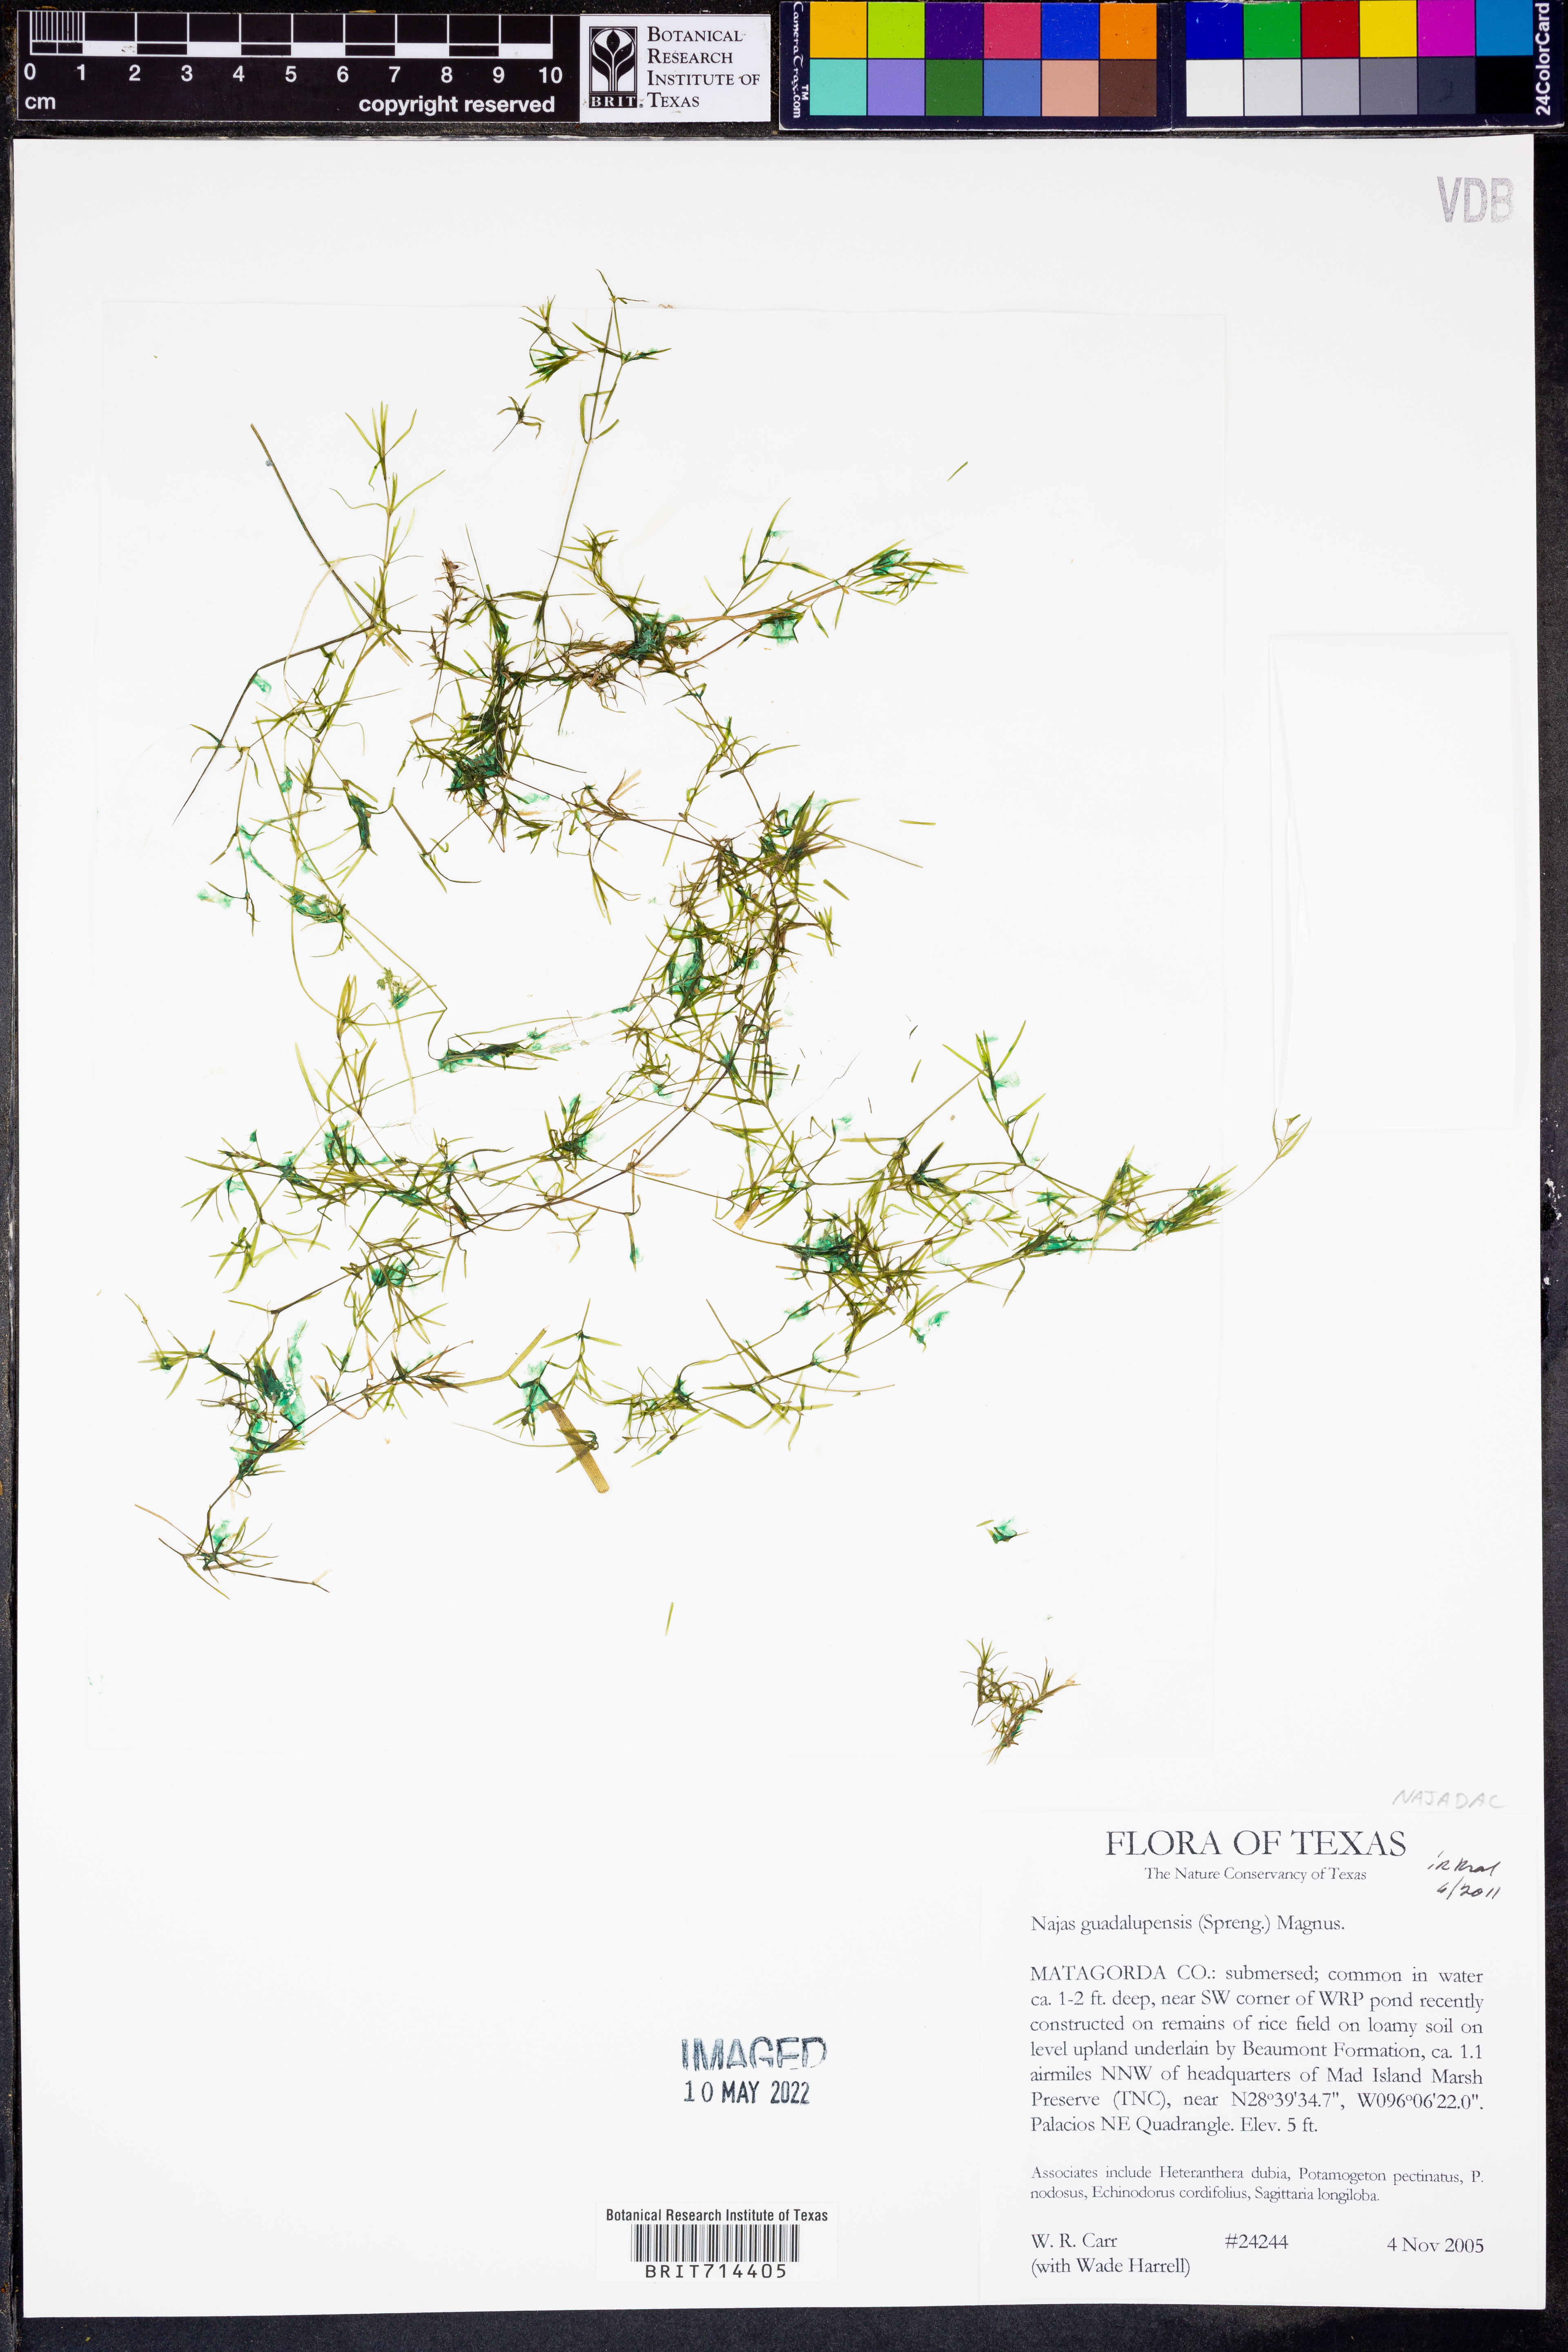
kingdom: Plantae
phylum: Tracheophyta
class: Liliopsida
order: Alismatales
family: Hydrocharitaceae
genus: Najas
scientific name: Najas guadalupensis
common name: Southern naiad
